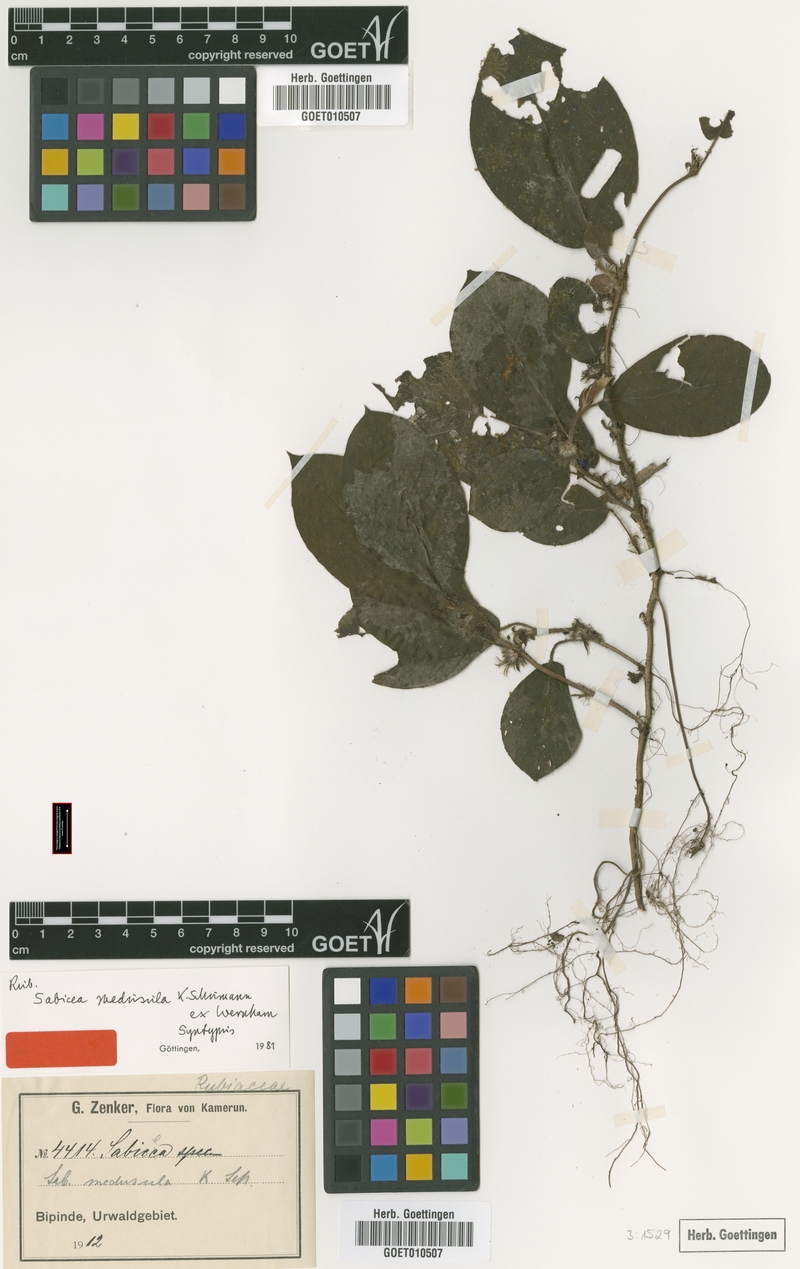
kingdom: Plantae
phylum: Tracheophyta
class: Magnoliopsida
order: Gentianales
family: Rubiaceae
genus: Sabicea
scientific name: Sabicea medusula
